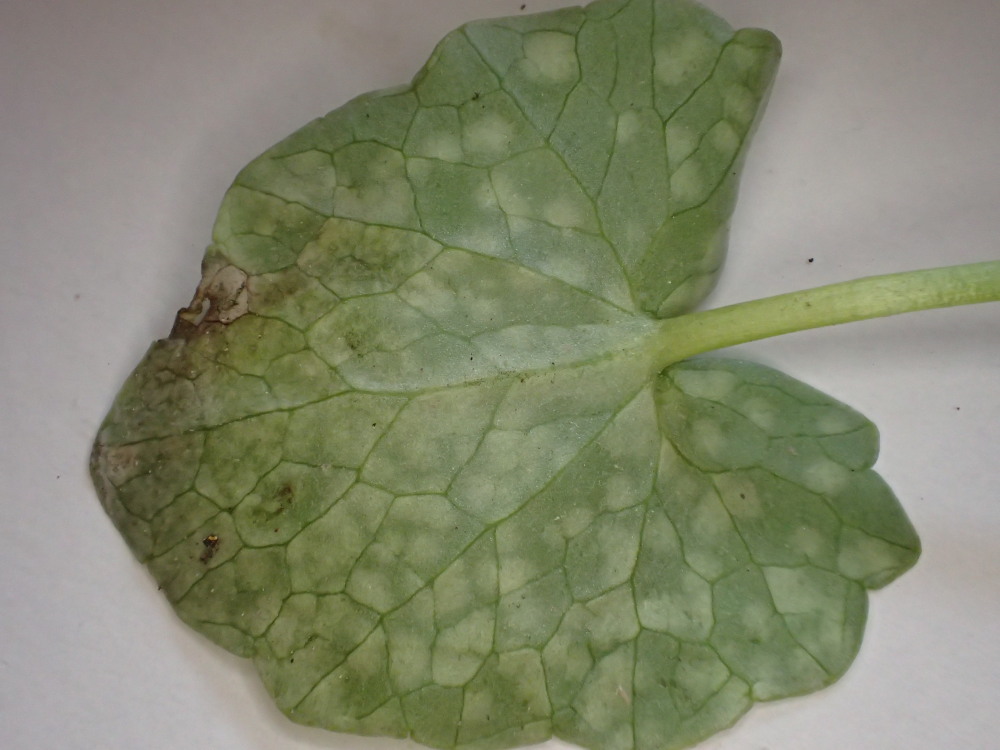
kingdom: Fungi
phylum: Basidiomycota
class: Exobasidiomycetes
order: Entylomatales
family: Entylomataceae
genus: Entyloma
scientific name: Entyloma ficariae
